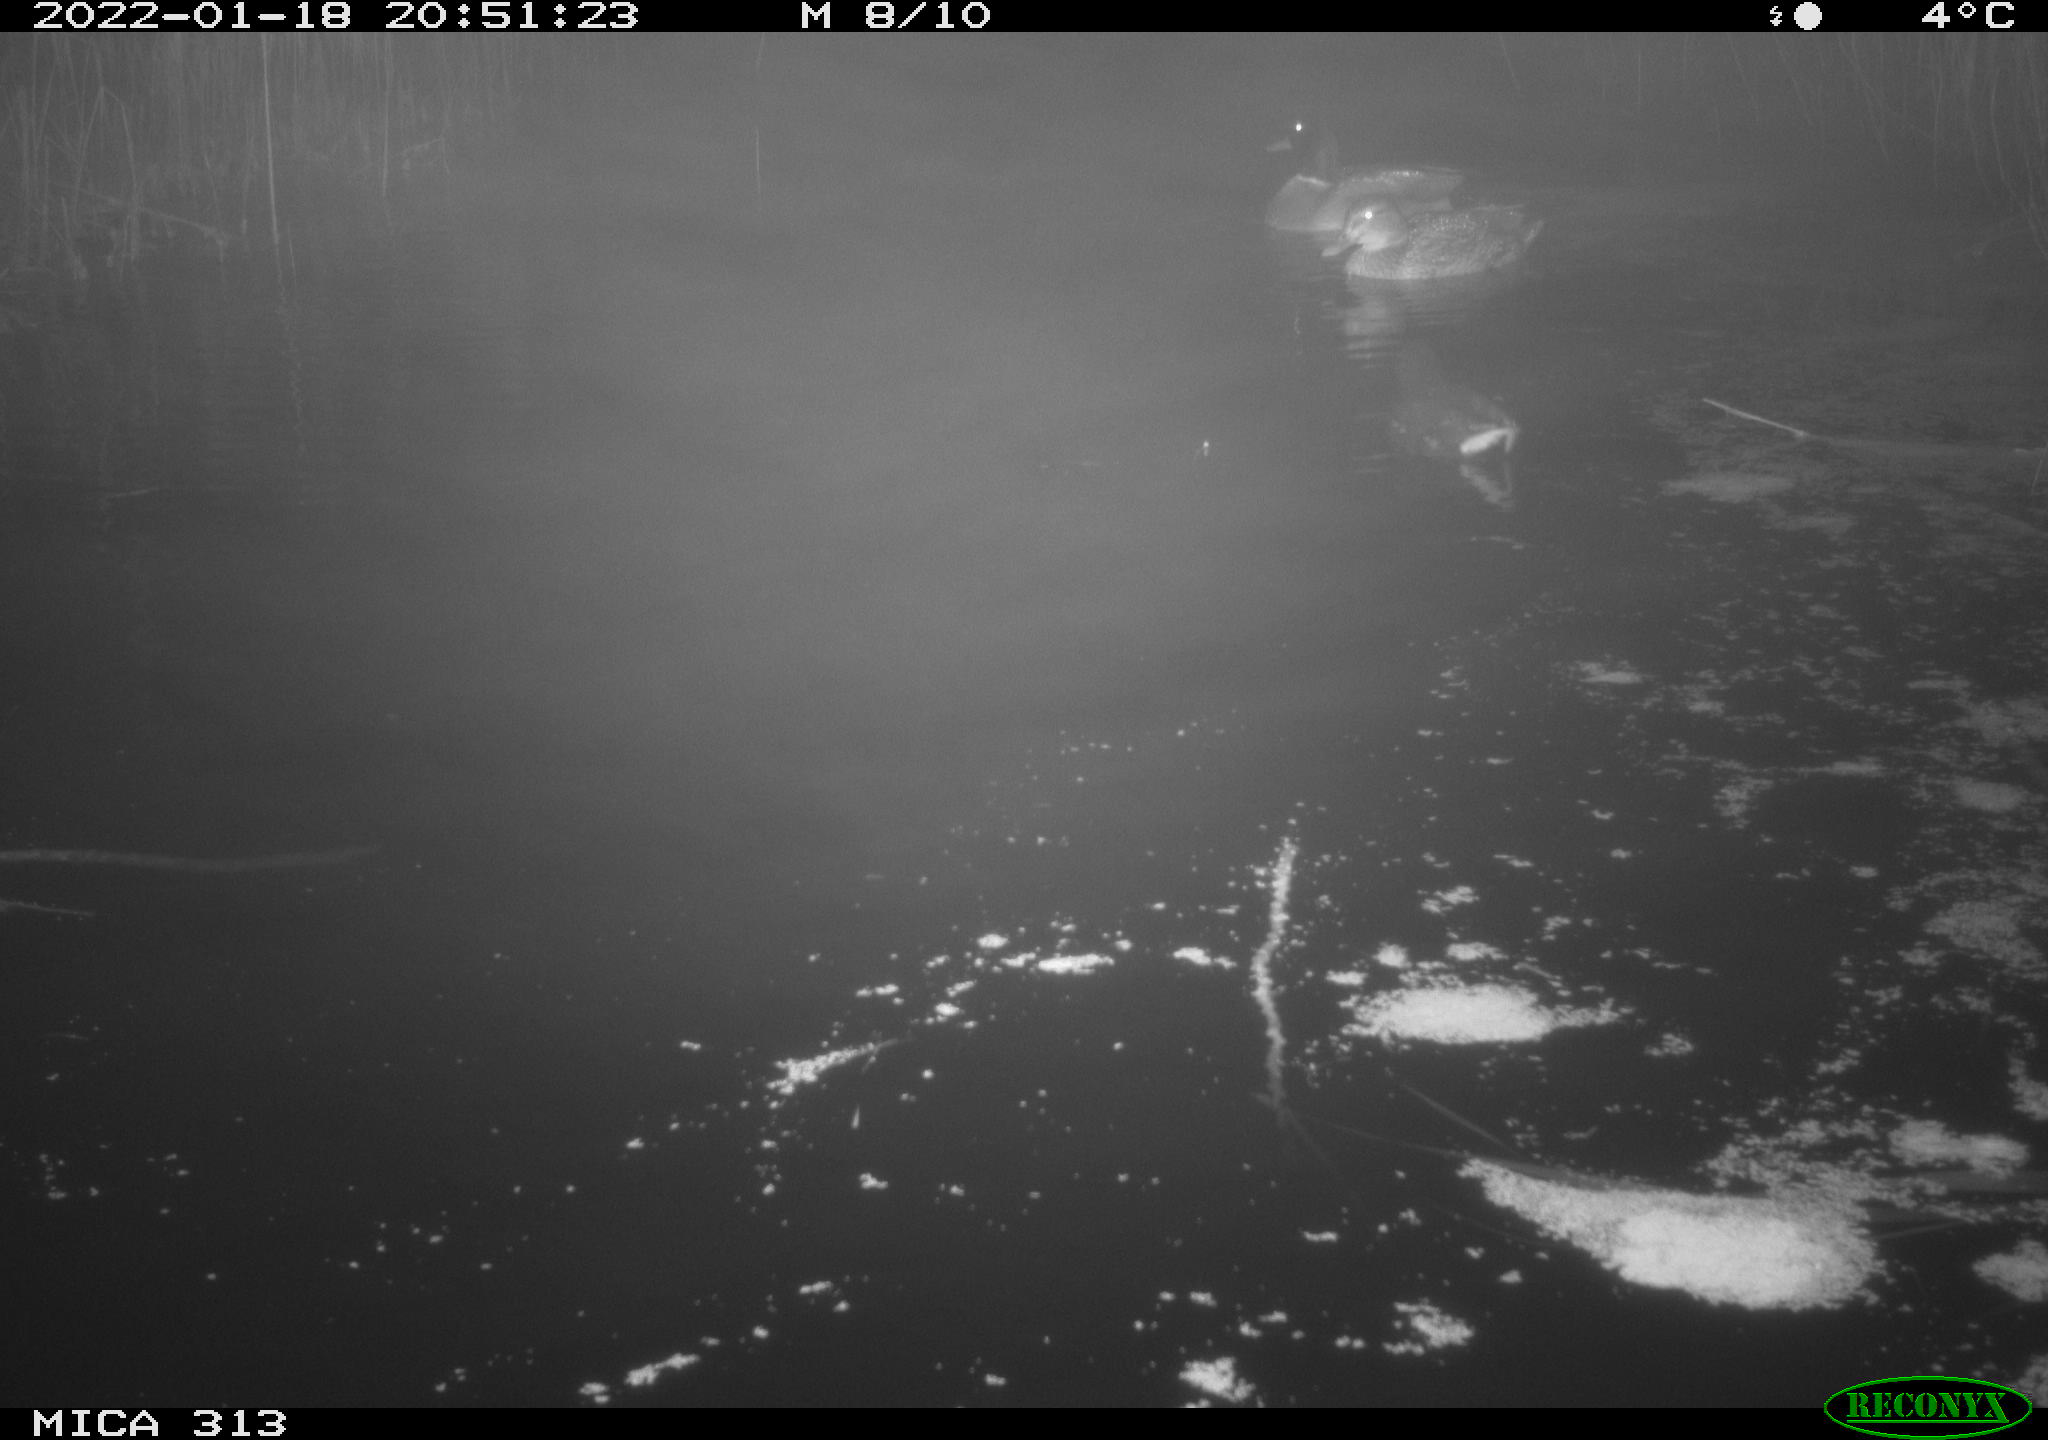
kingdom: Animalia
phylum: Chordata
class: Aves
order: Gruiformes
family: Rallidae
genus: Gallinula
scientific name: Gallinula chloropus
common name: Common moorhen
